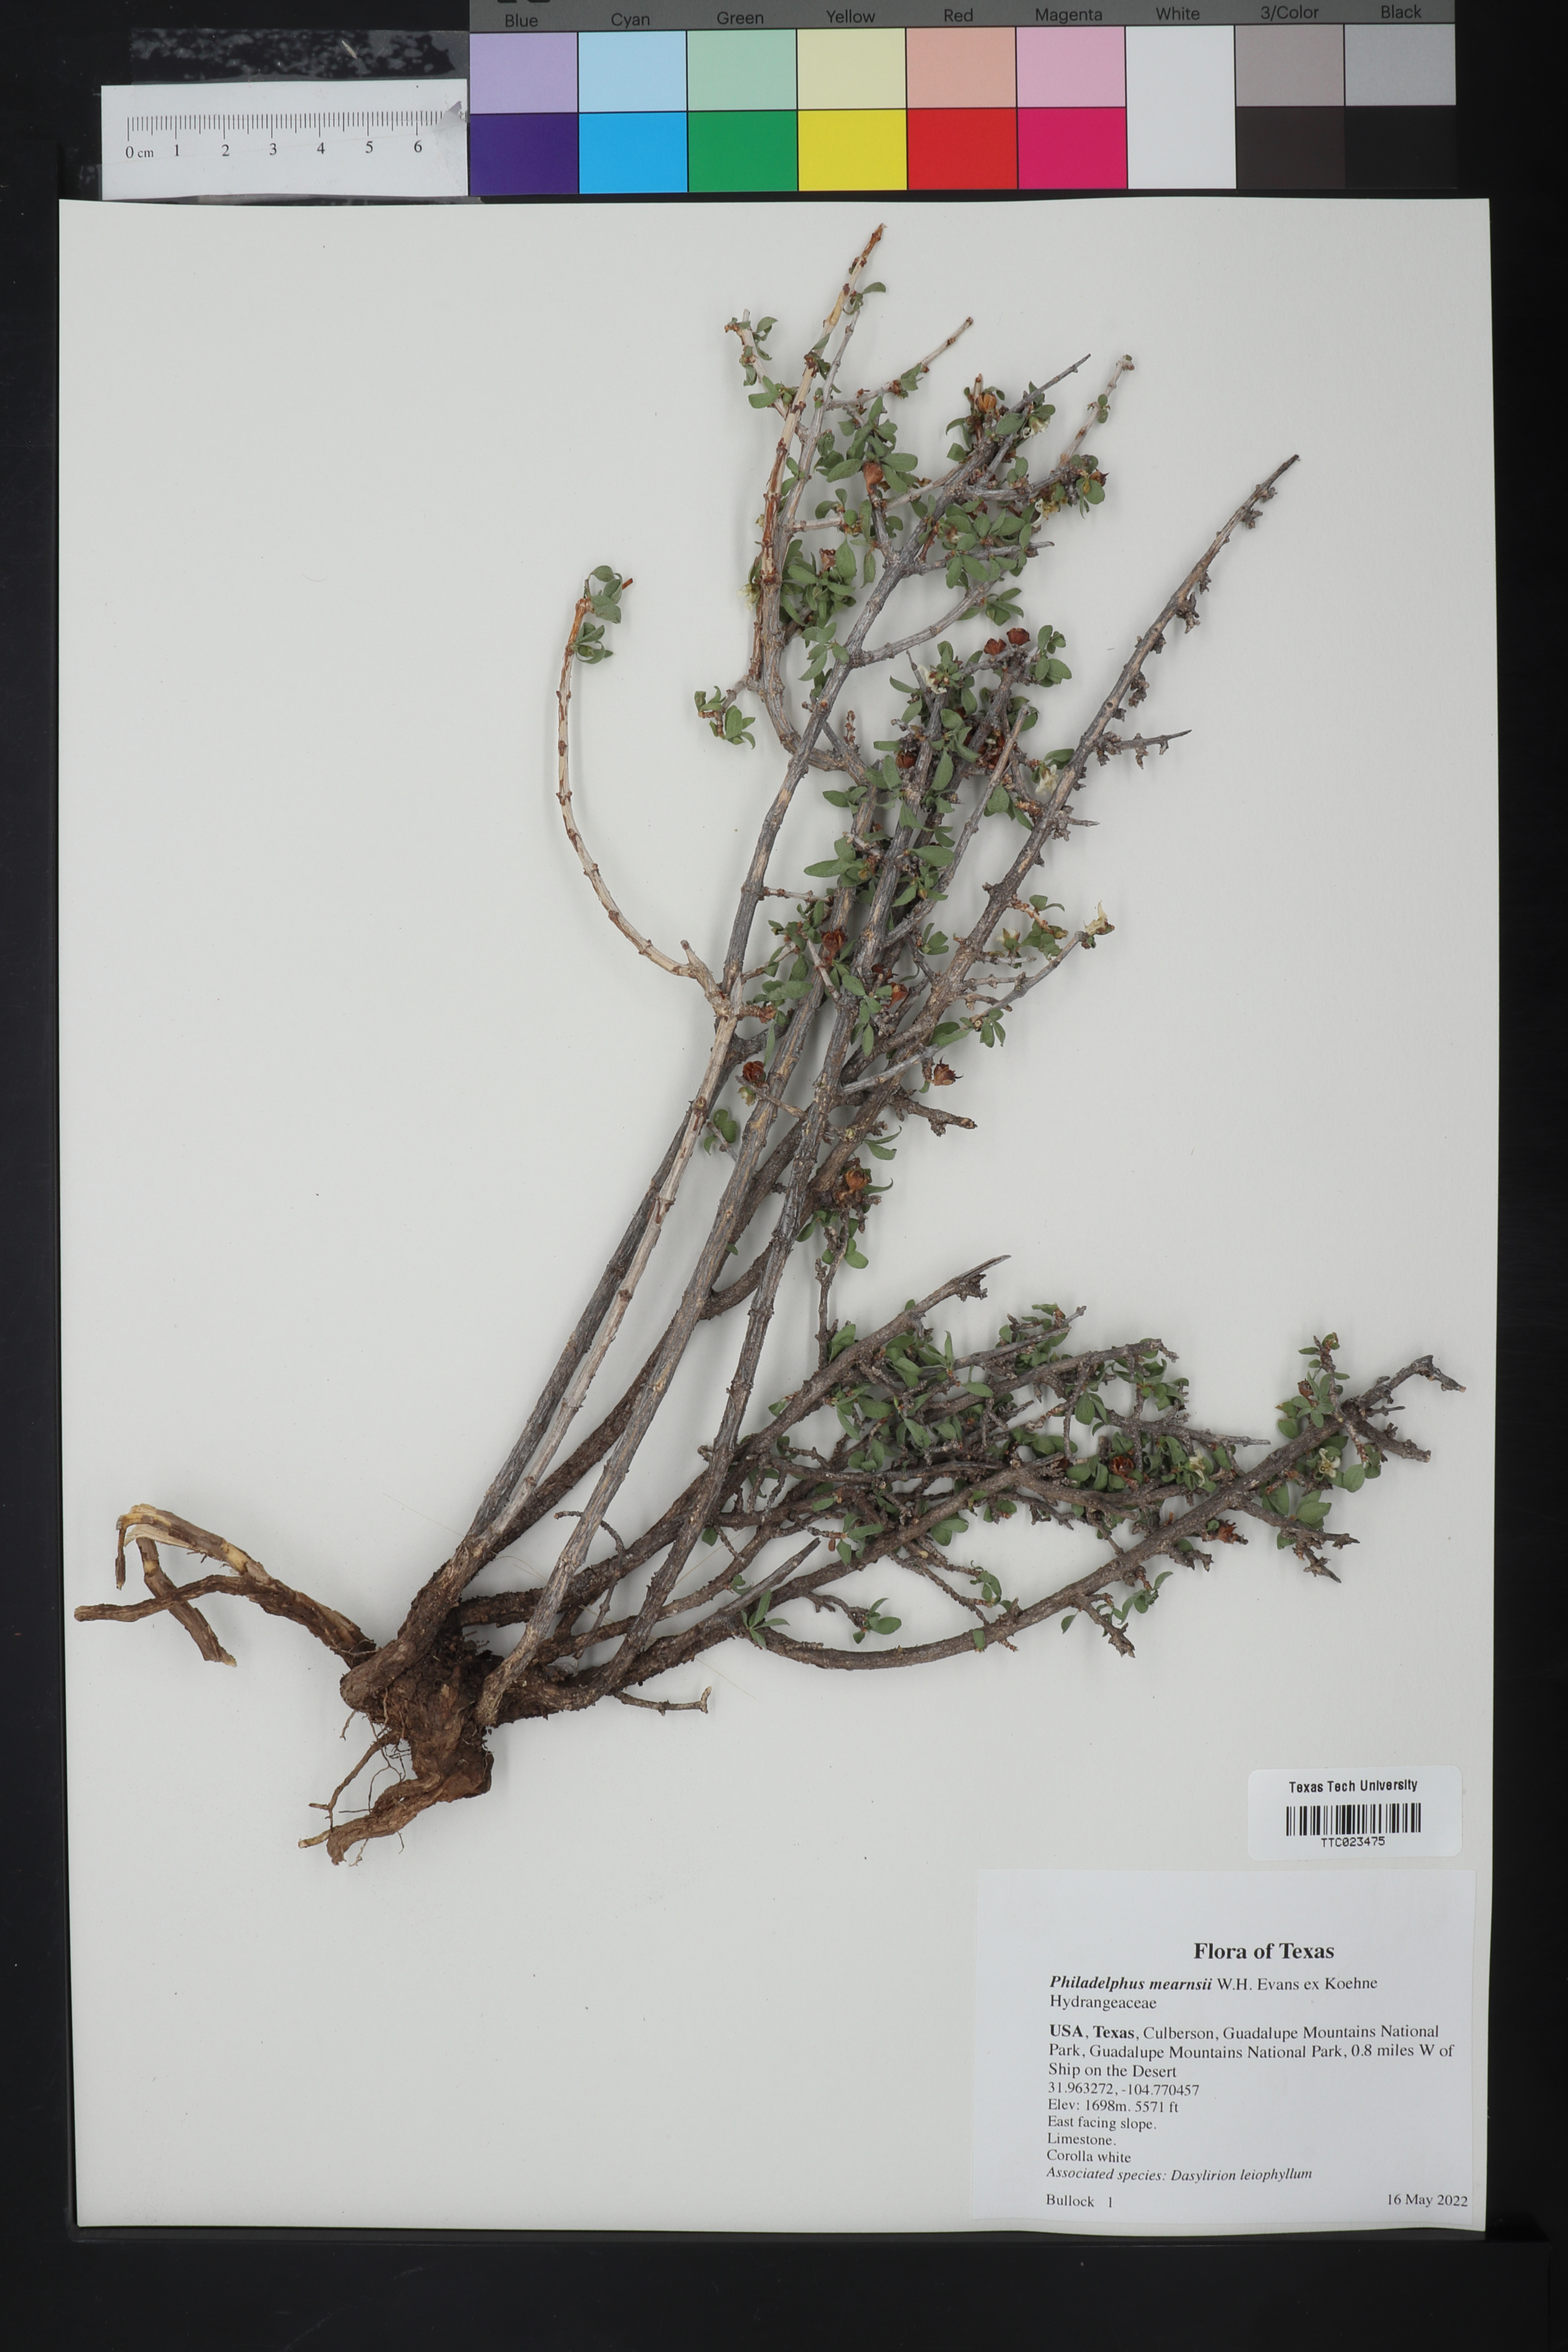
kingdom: Plantae
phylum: Tracheophyta
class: Magnoliopsida
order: Cornales
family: Hydrangeaceae
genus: Philadelphus
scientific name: Philadelphus mearnsii
